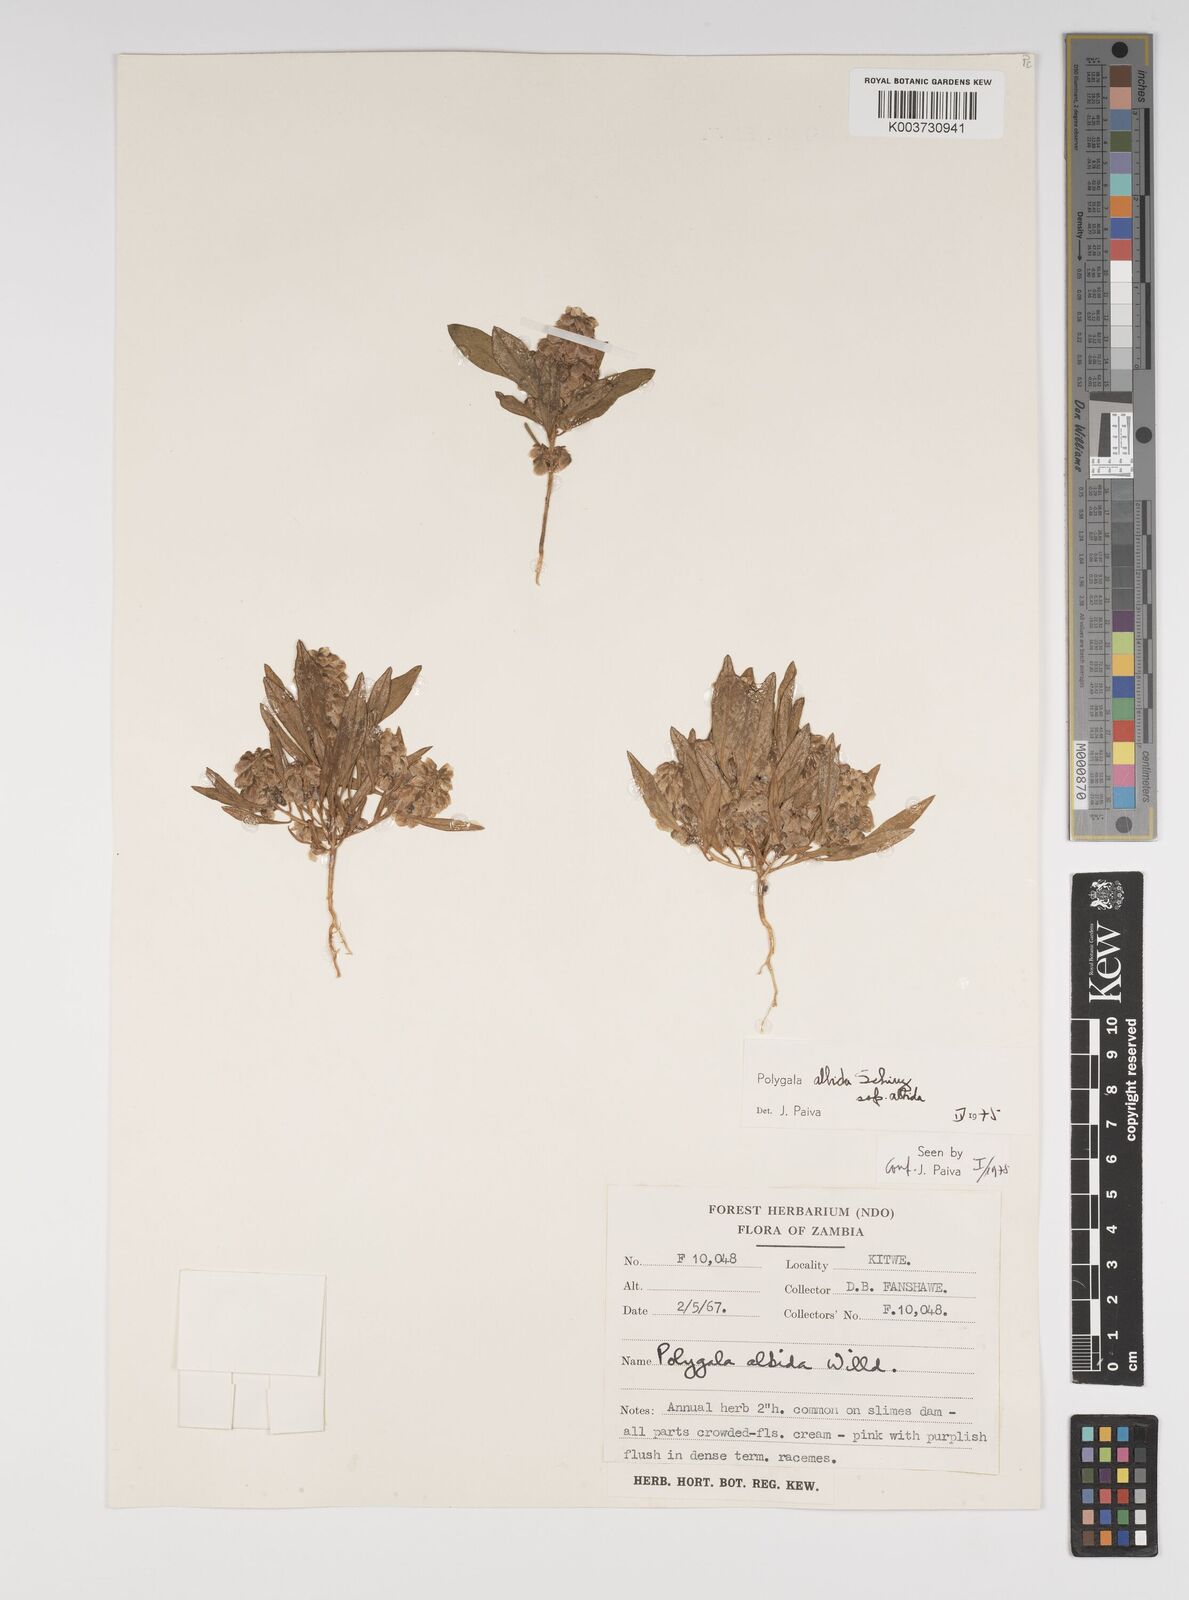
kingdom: Plantae
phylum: Tracheophyta
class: Magnoliopsida
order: Fabales
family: Polygalaceae
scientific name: Polygalaceae
